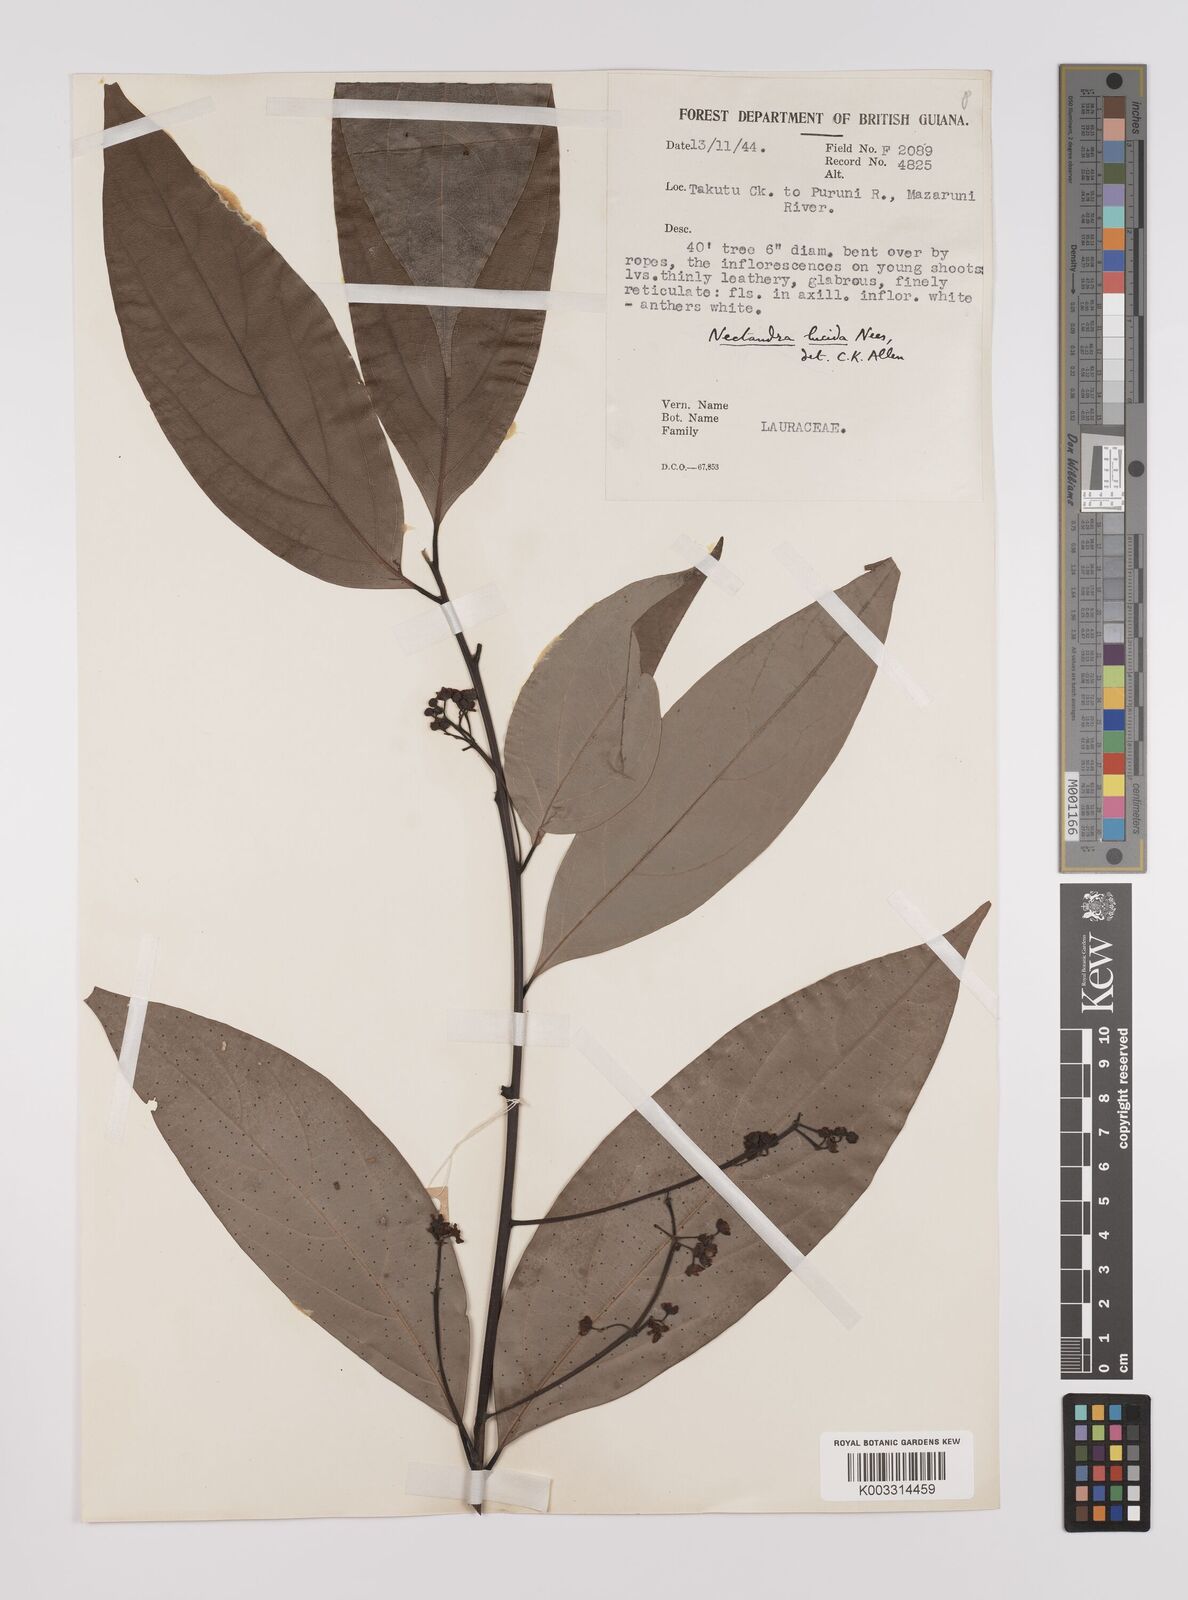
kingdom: Plantae
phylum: Tracheophyta
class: Magnoliopsida
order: Laurales
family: Lauraceae
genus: Endlicheria
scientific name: Endlicheria paniculata
